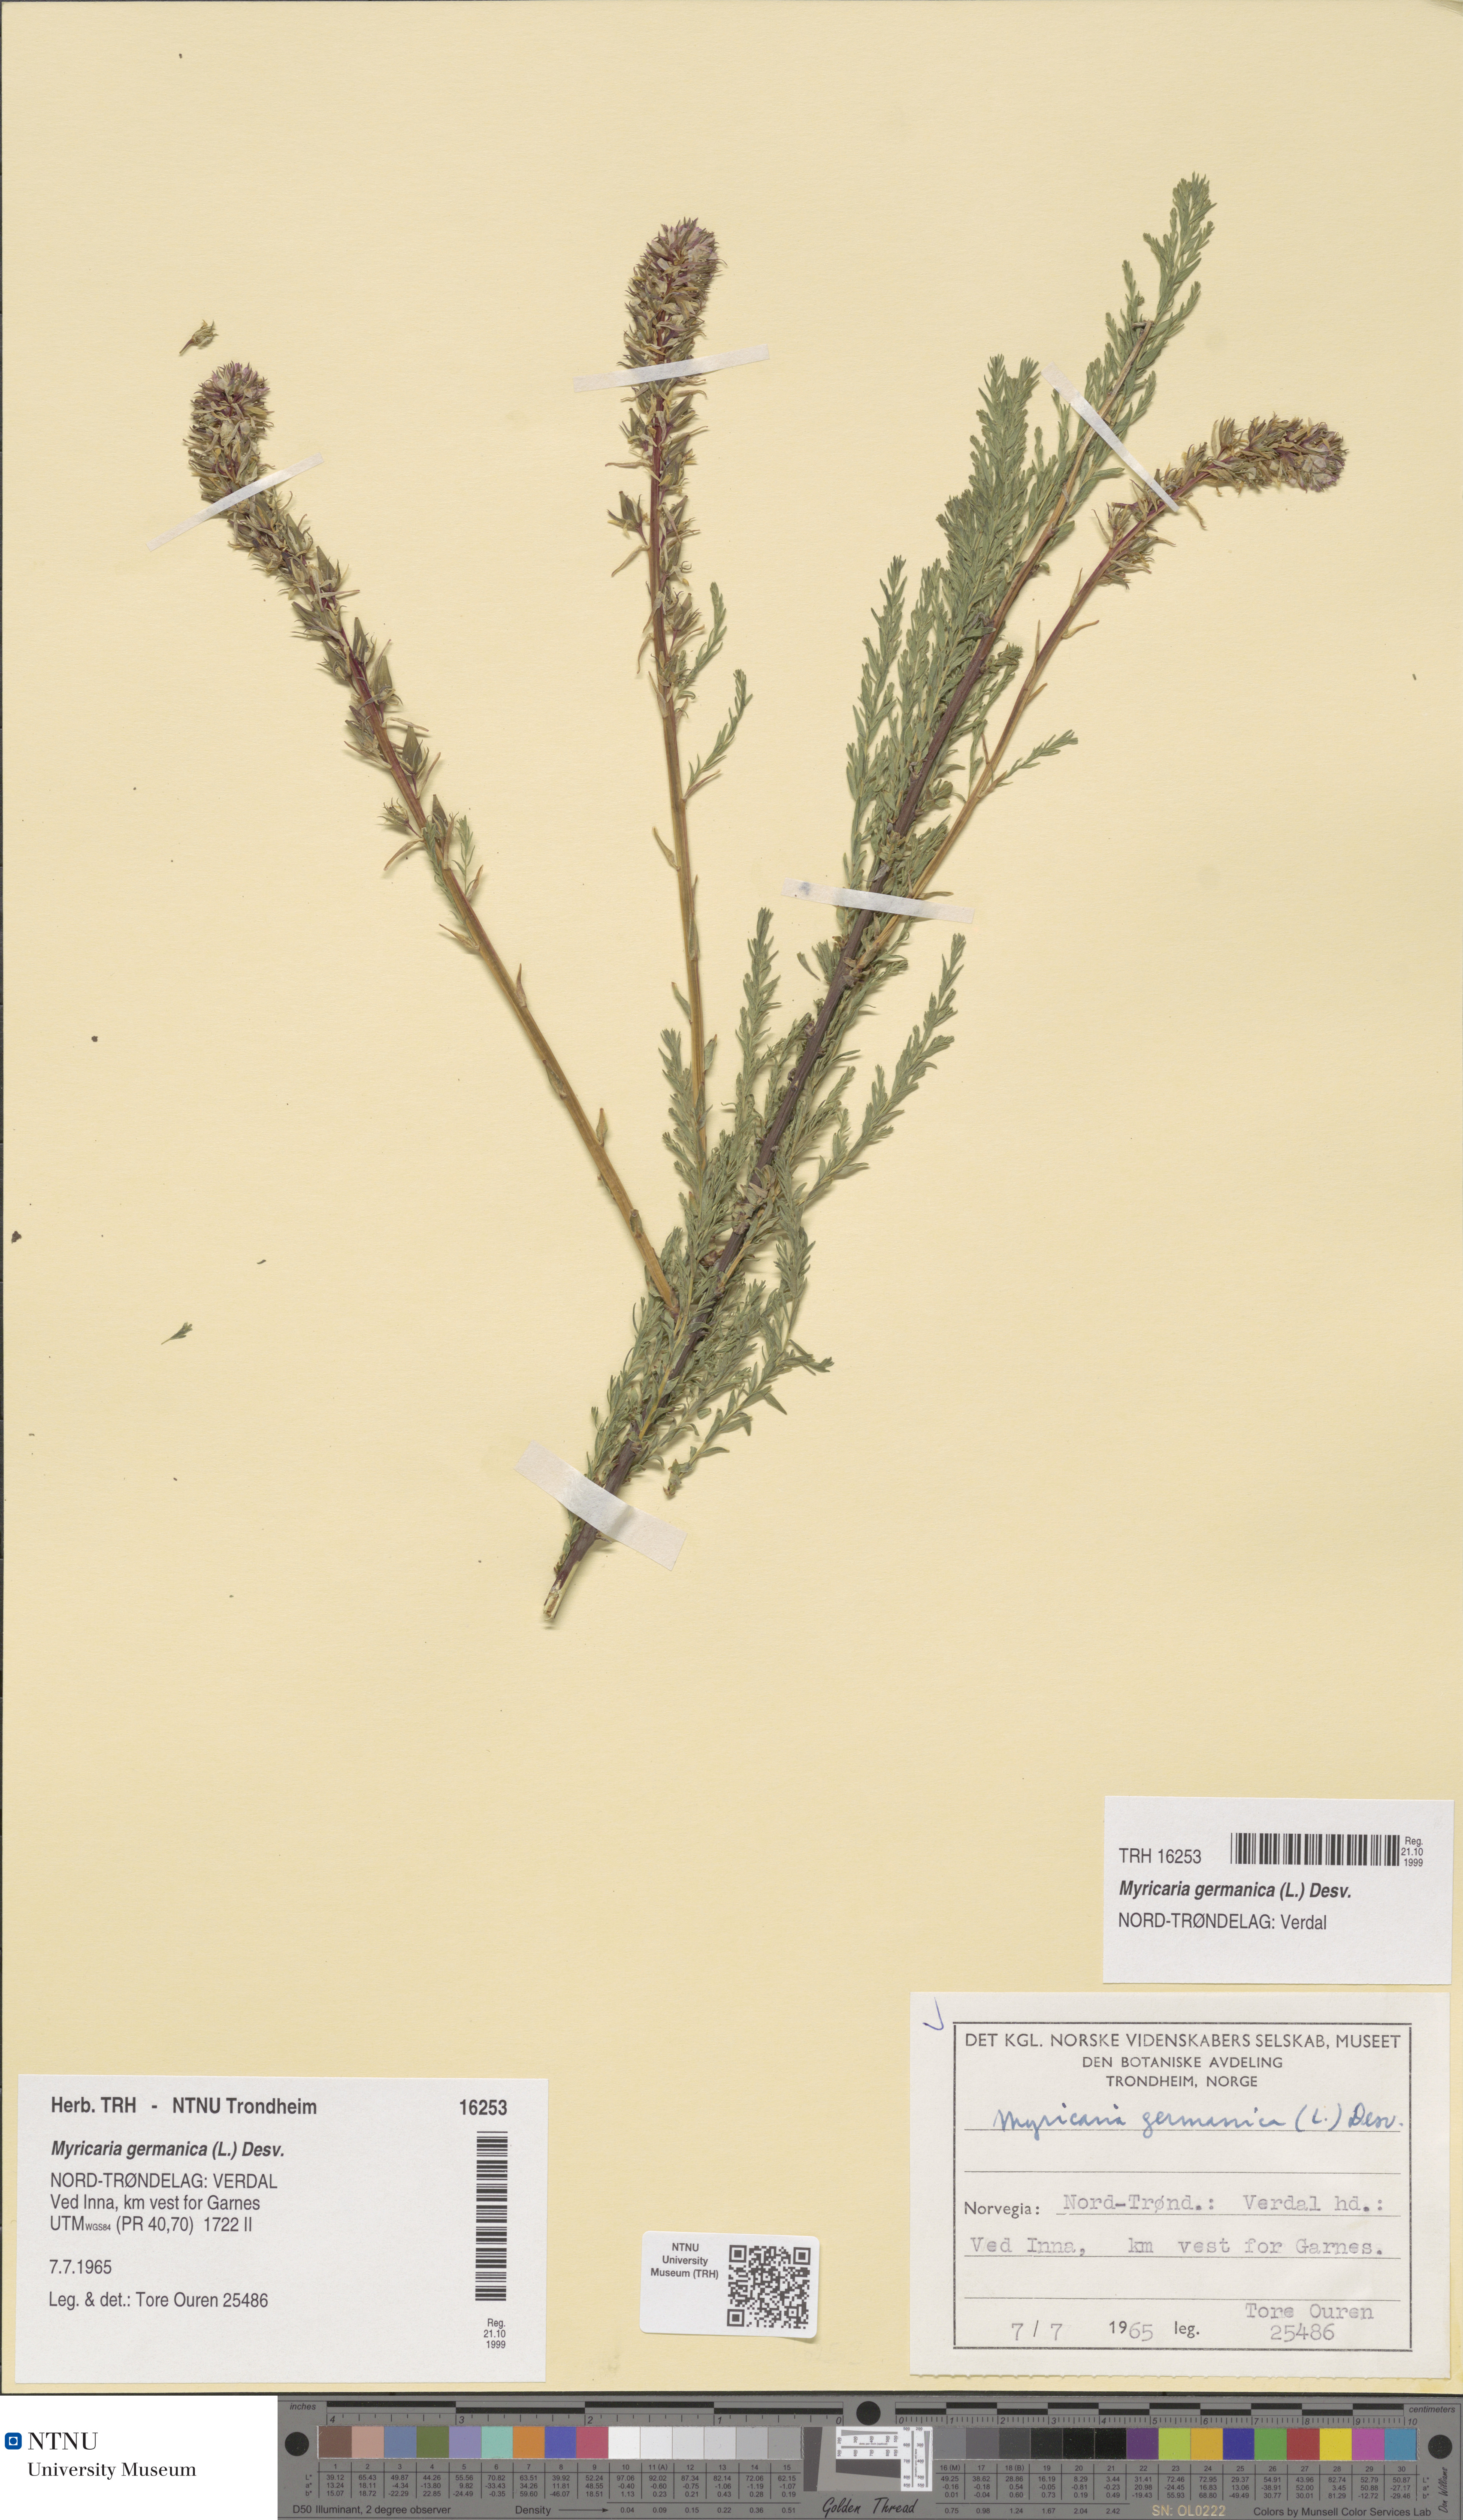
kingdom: Plantae
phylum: Tracheophyta
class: Magnoliopsida
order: Caryophyllales
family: Tamaricaceae
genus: Myricaria
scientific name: Myricaria germanica
